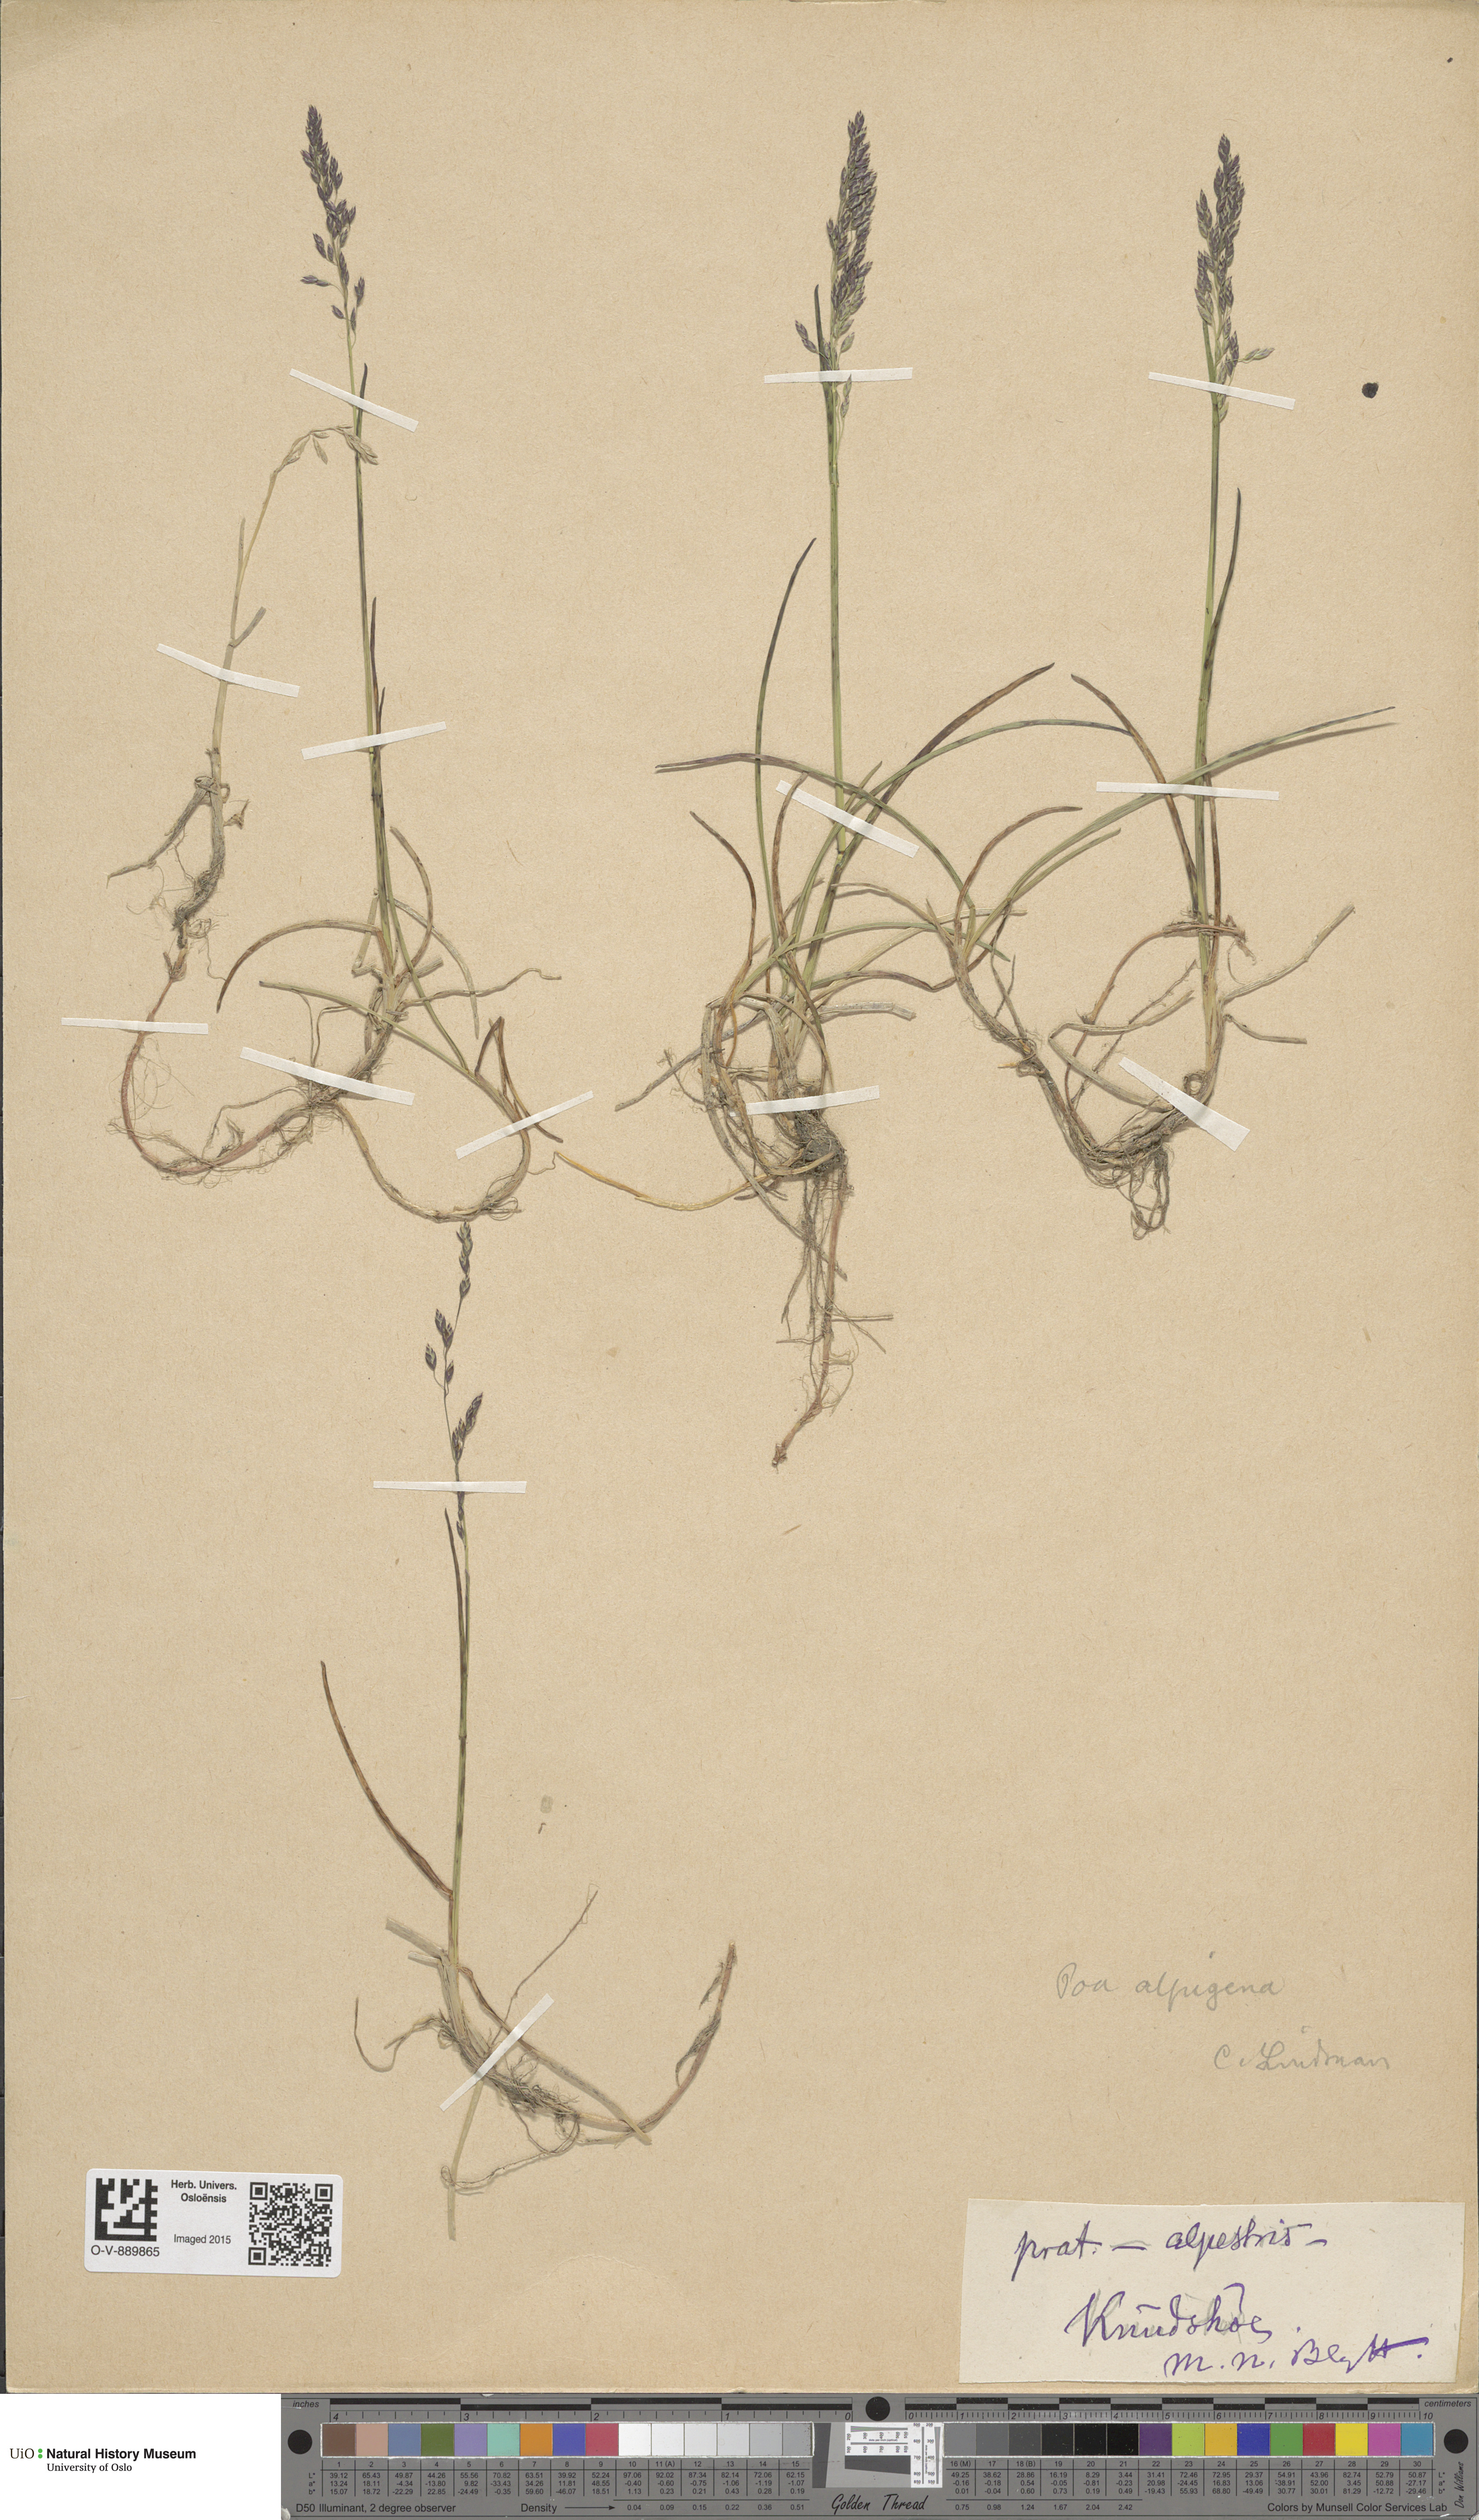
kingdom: Plantae
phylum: Tracheophyta
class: Liliopsida
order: Poales
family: Poaceae
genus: Poa
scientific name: Poa alpigena
